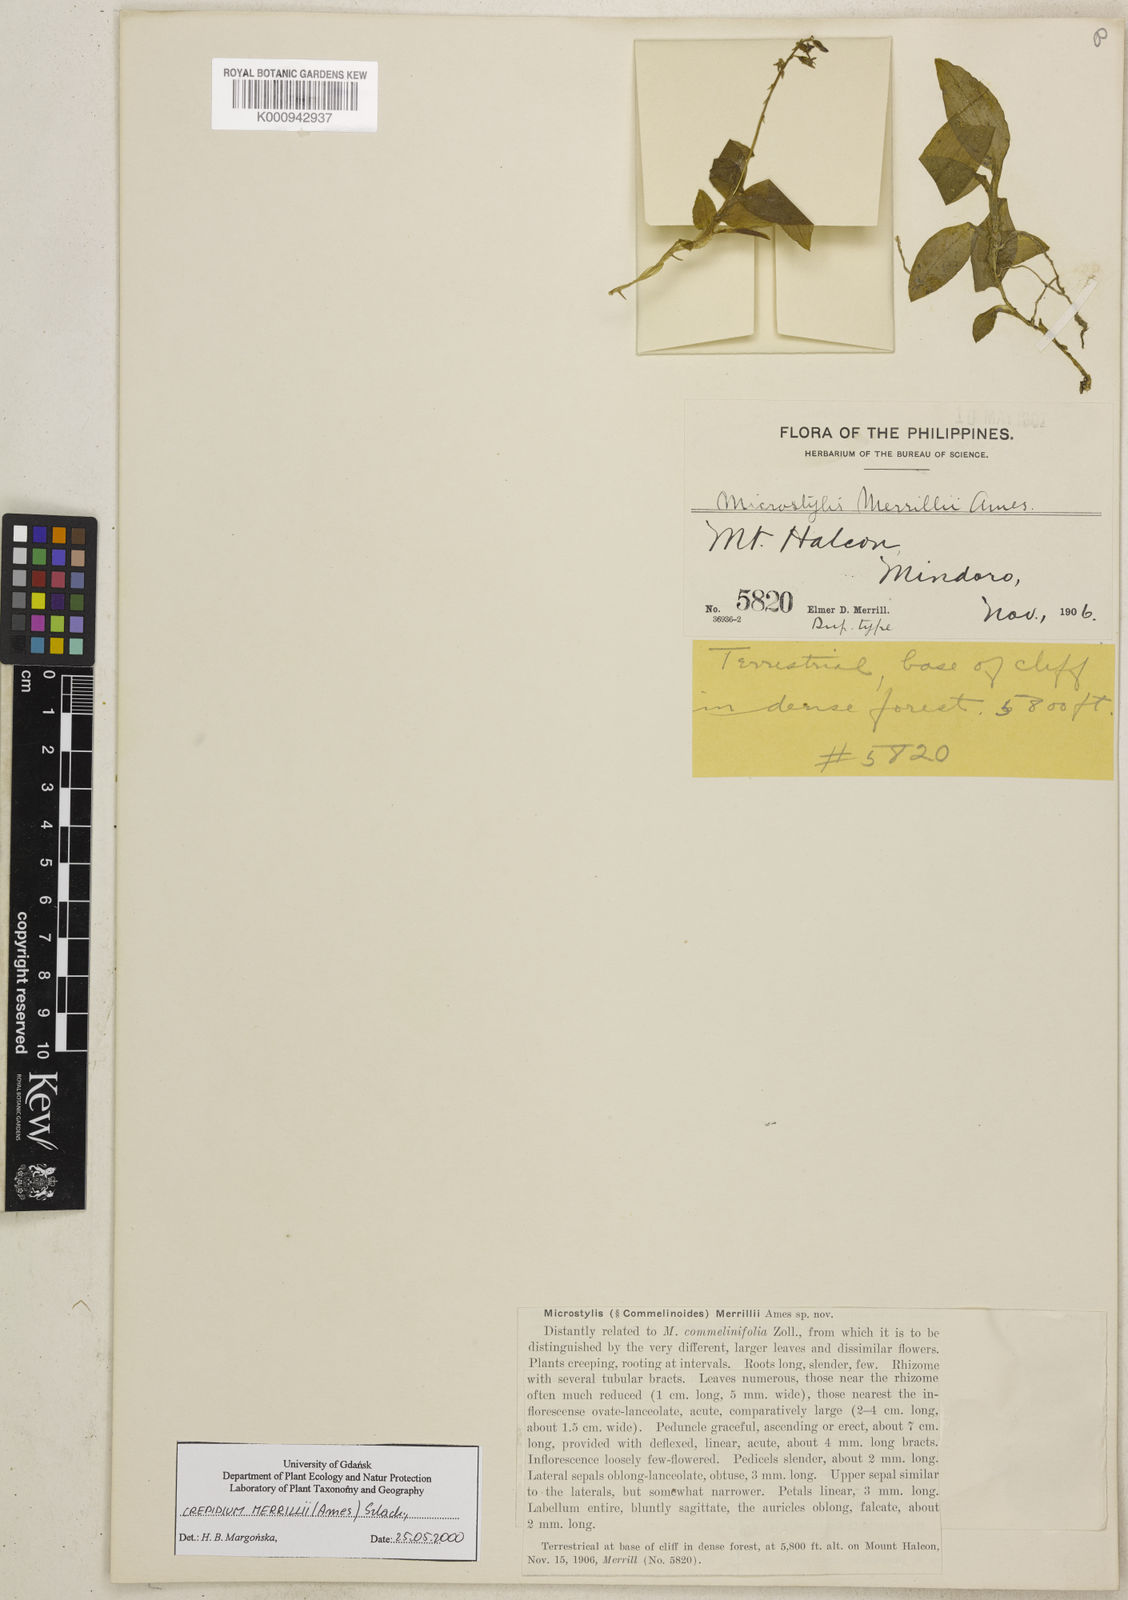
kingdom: Plantae
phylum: Tracheophyta
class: Liliopsida
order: Asparagales
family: Orchidaceae
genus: Crepidium
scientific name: Crepidium merrillii
